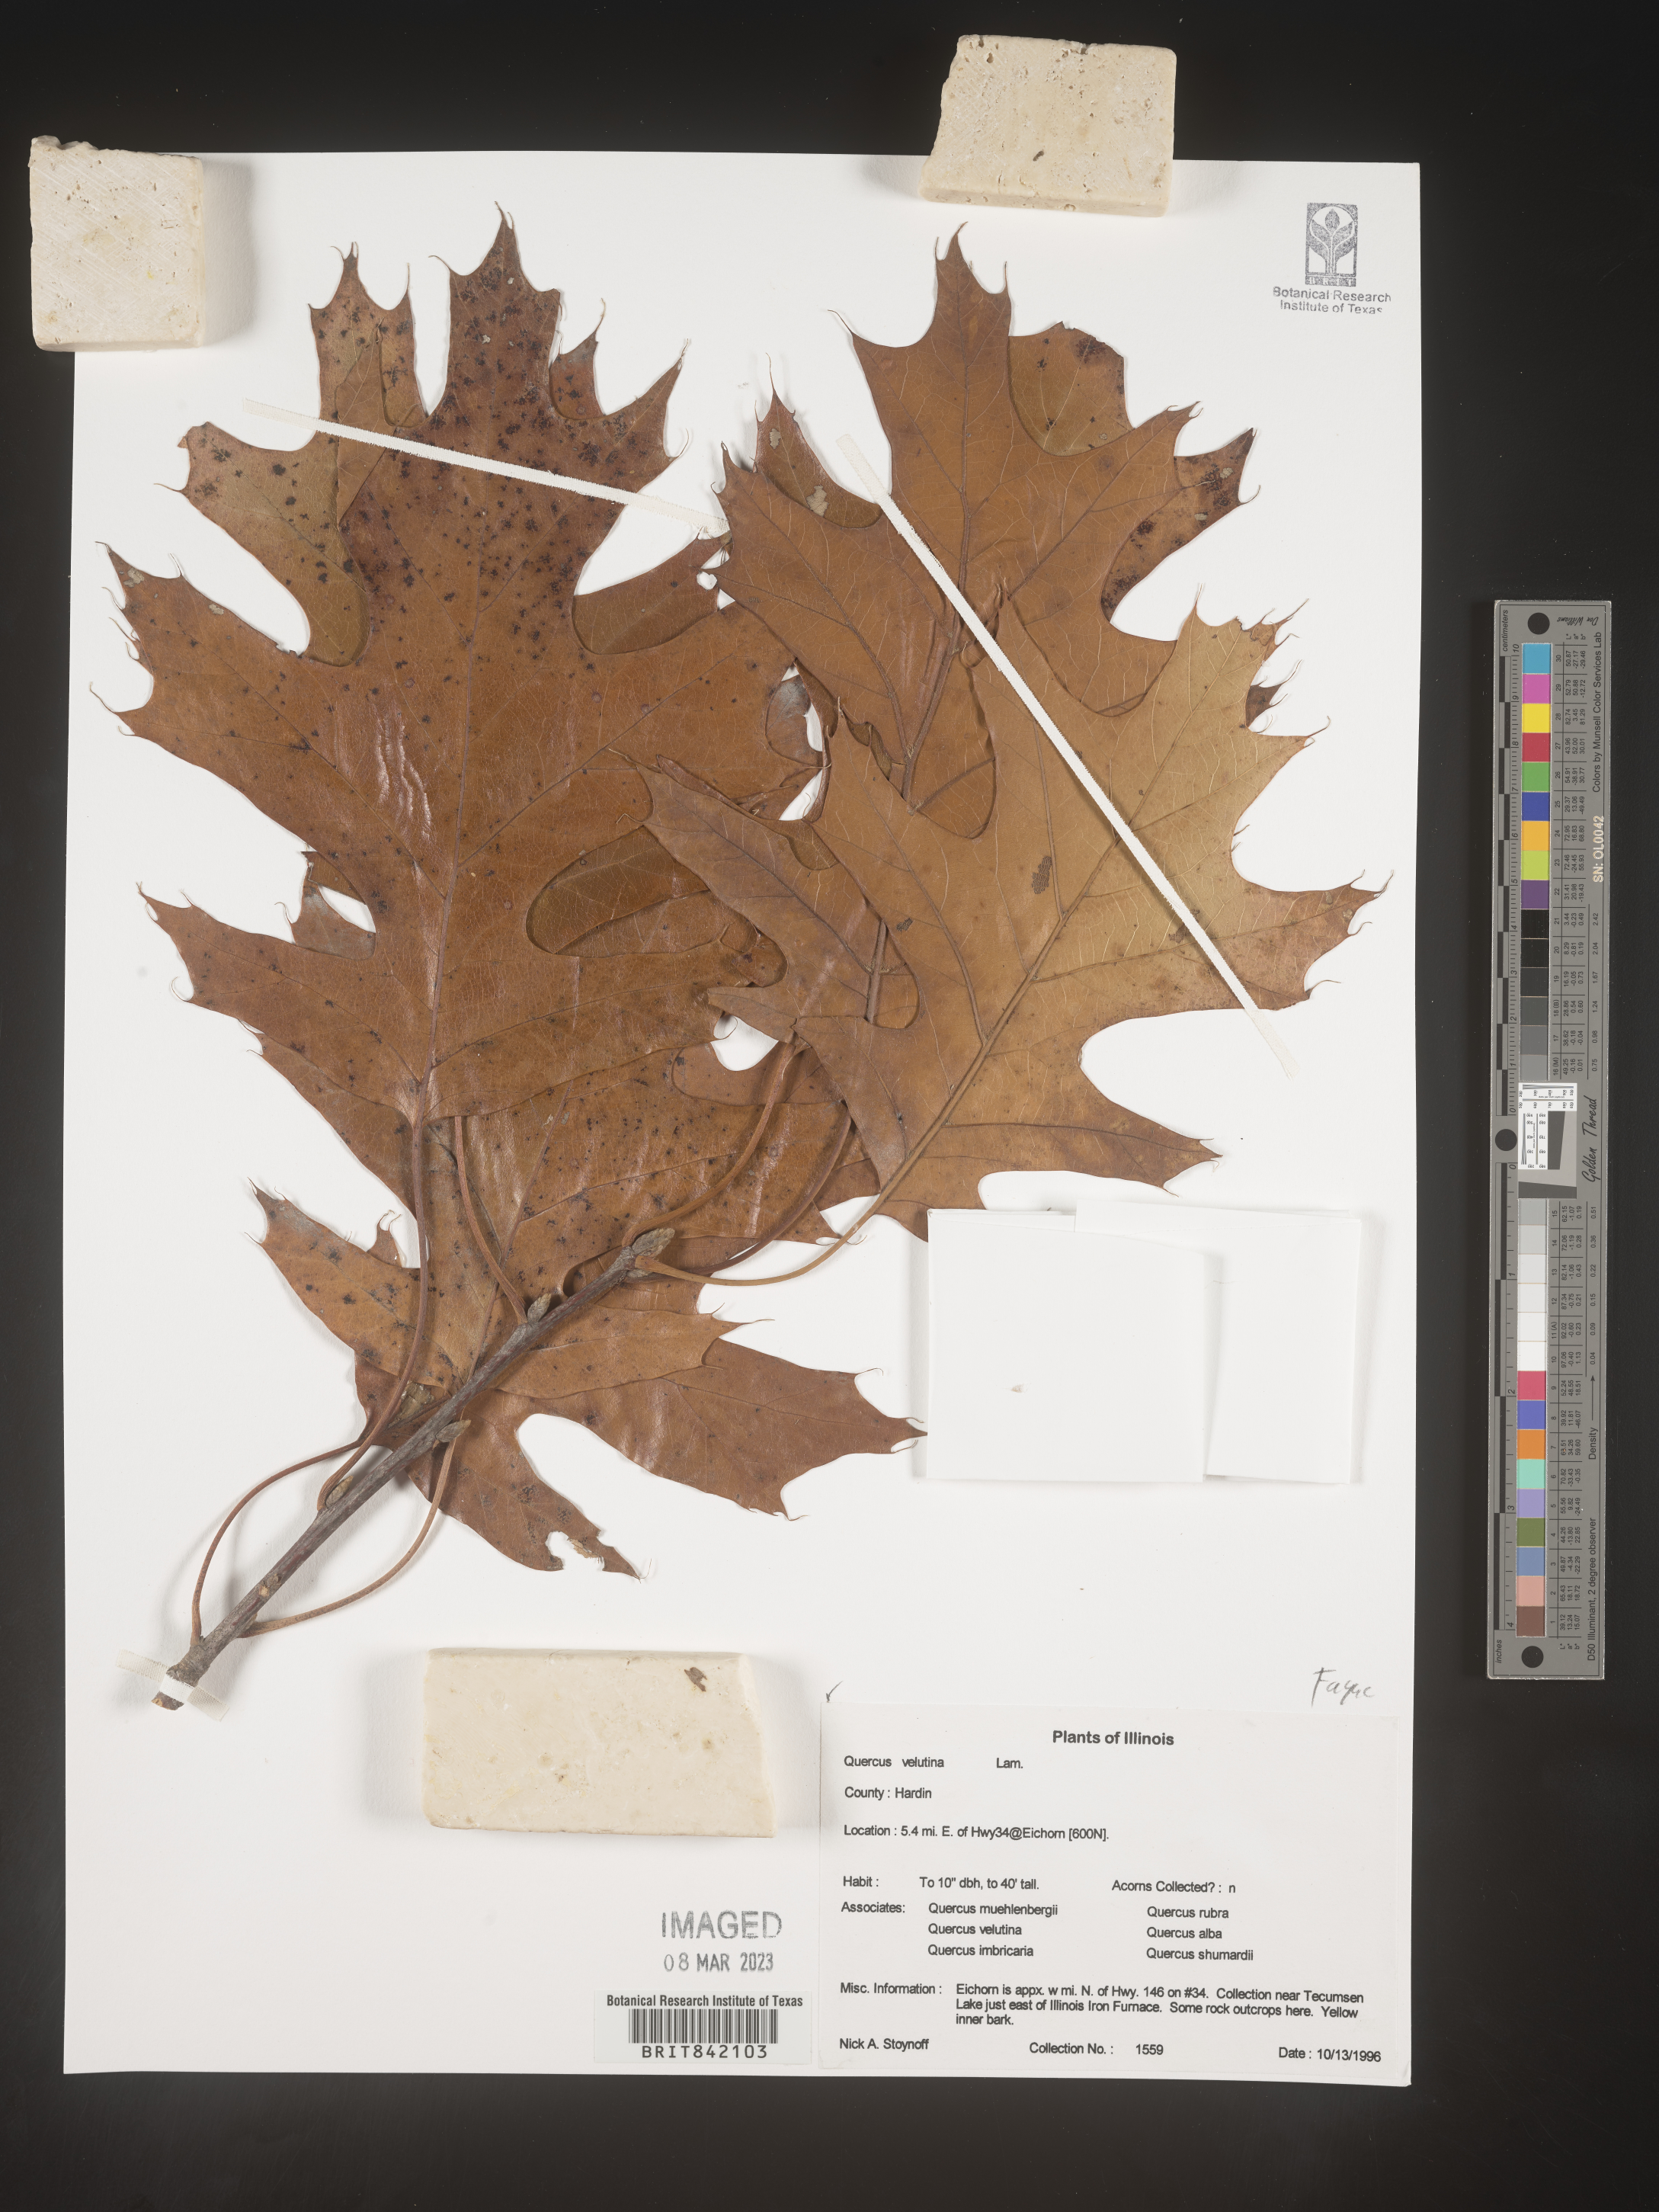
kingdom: Plantae
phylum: Tracheophyta
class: Magnoliopsida
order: Fagales
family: Fagaceae
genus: Quercus
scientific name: Quercus velutina
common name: Black oak
